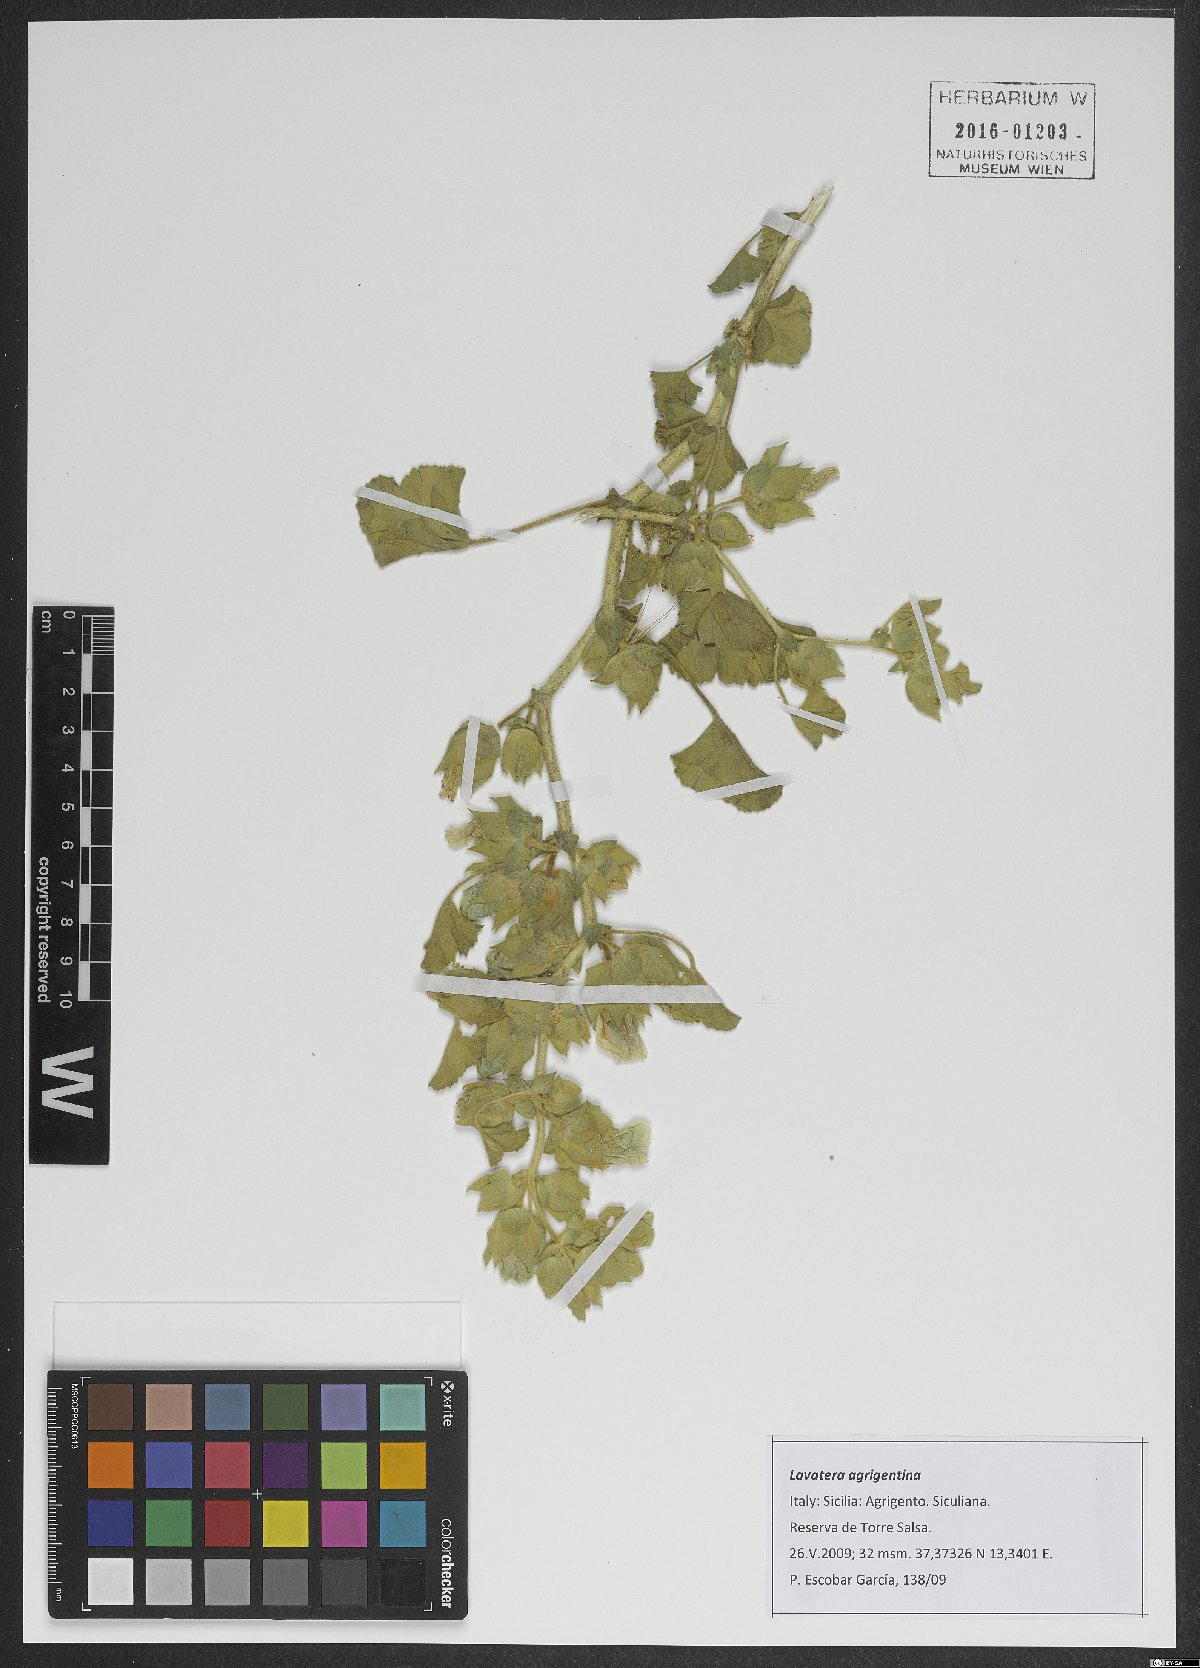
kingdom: Plantae
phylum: Tracheophyta
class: Magnoliopsida
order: Malvales
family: Malvaceae
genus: Malva
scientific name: Malva agrigentina
